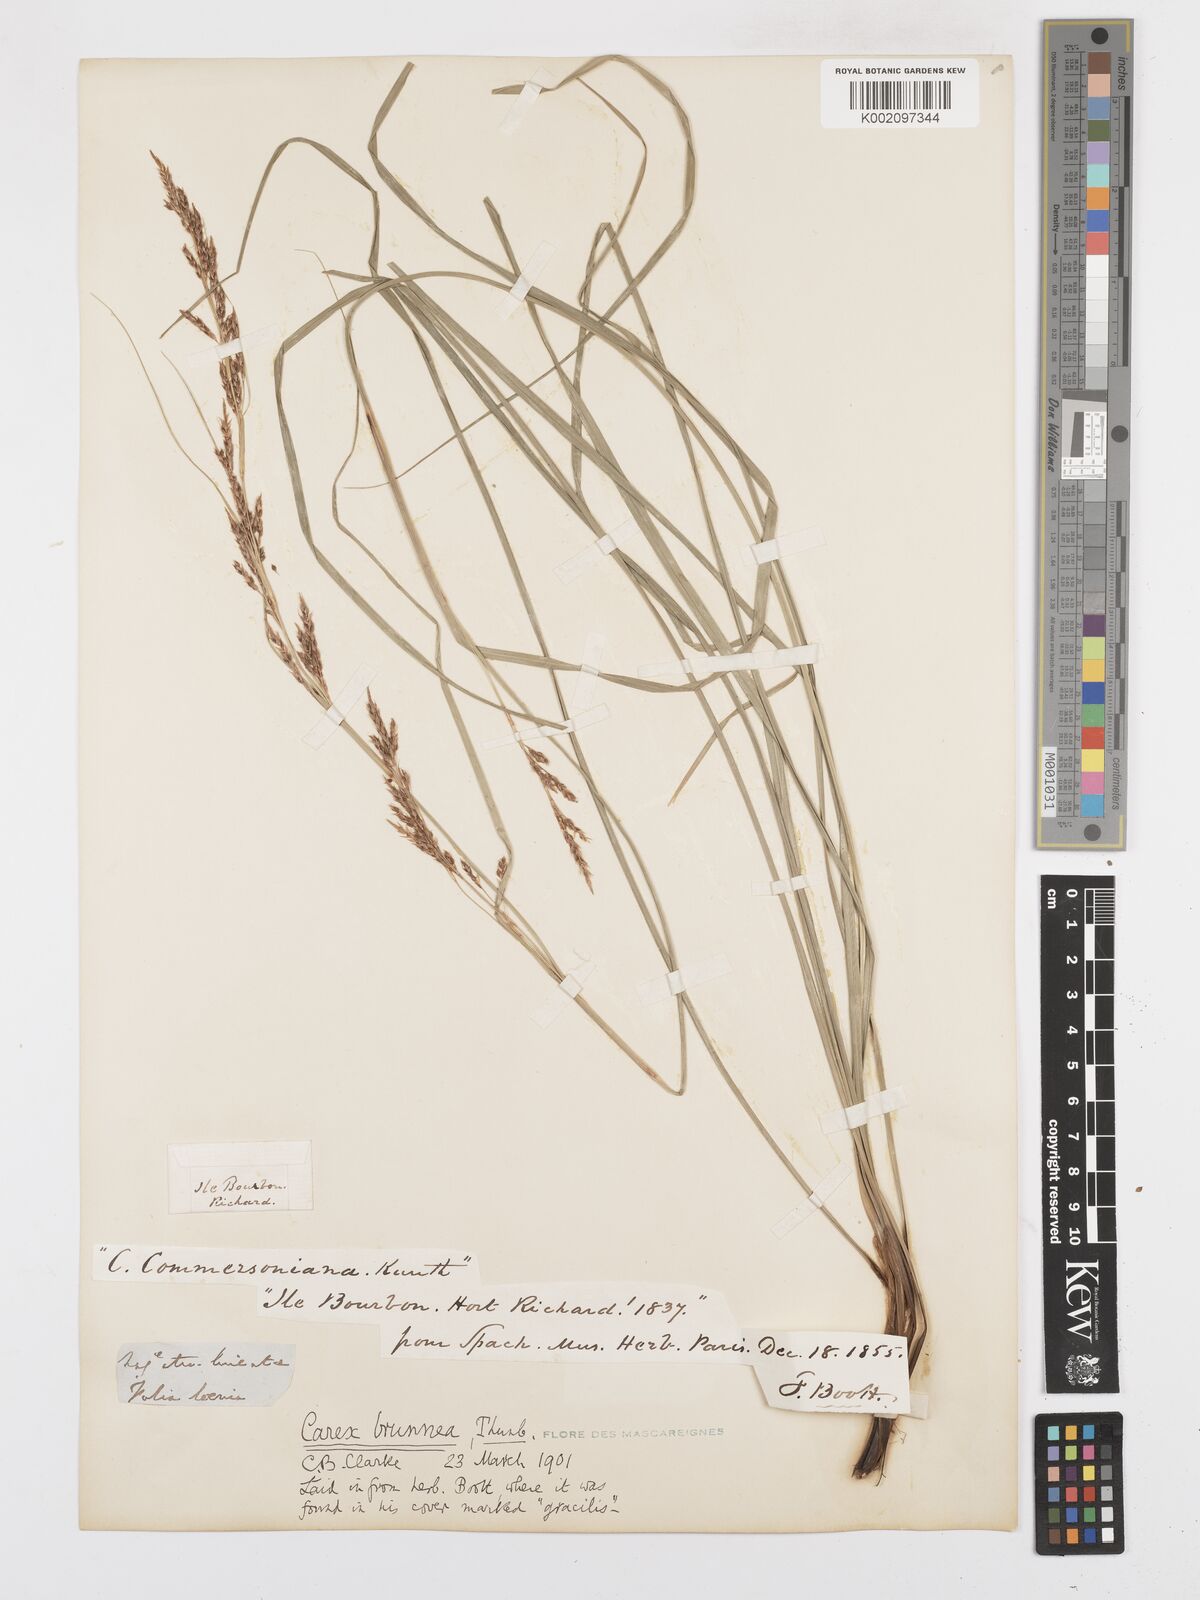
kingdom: Plantae
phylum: Tracheophyta
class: Liliopsida
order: Poales
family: Cyperaceae
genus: Carex
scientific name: Carex brunnea
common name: Greater brown sedge
